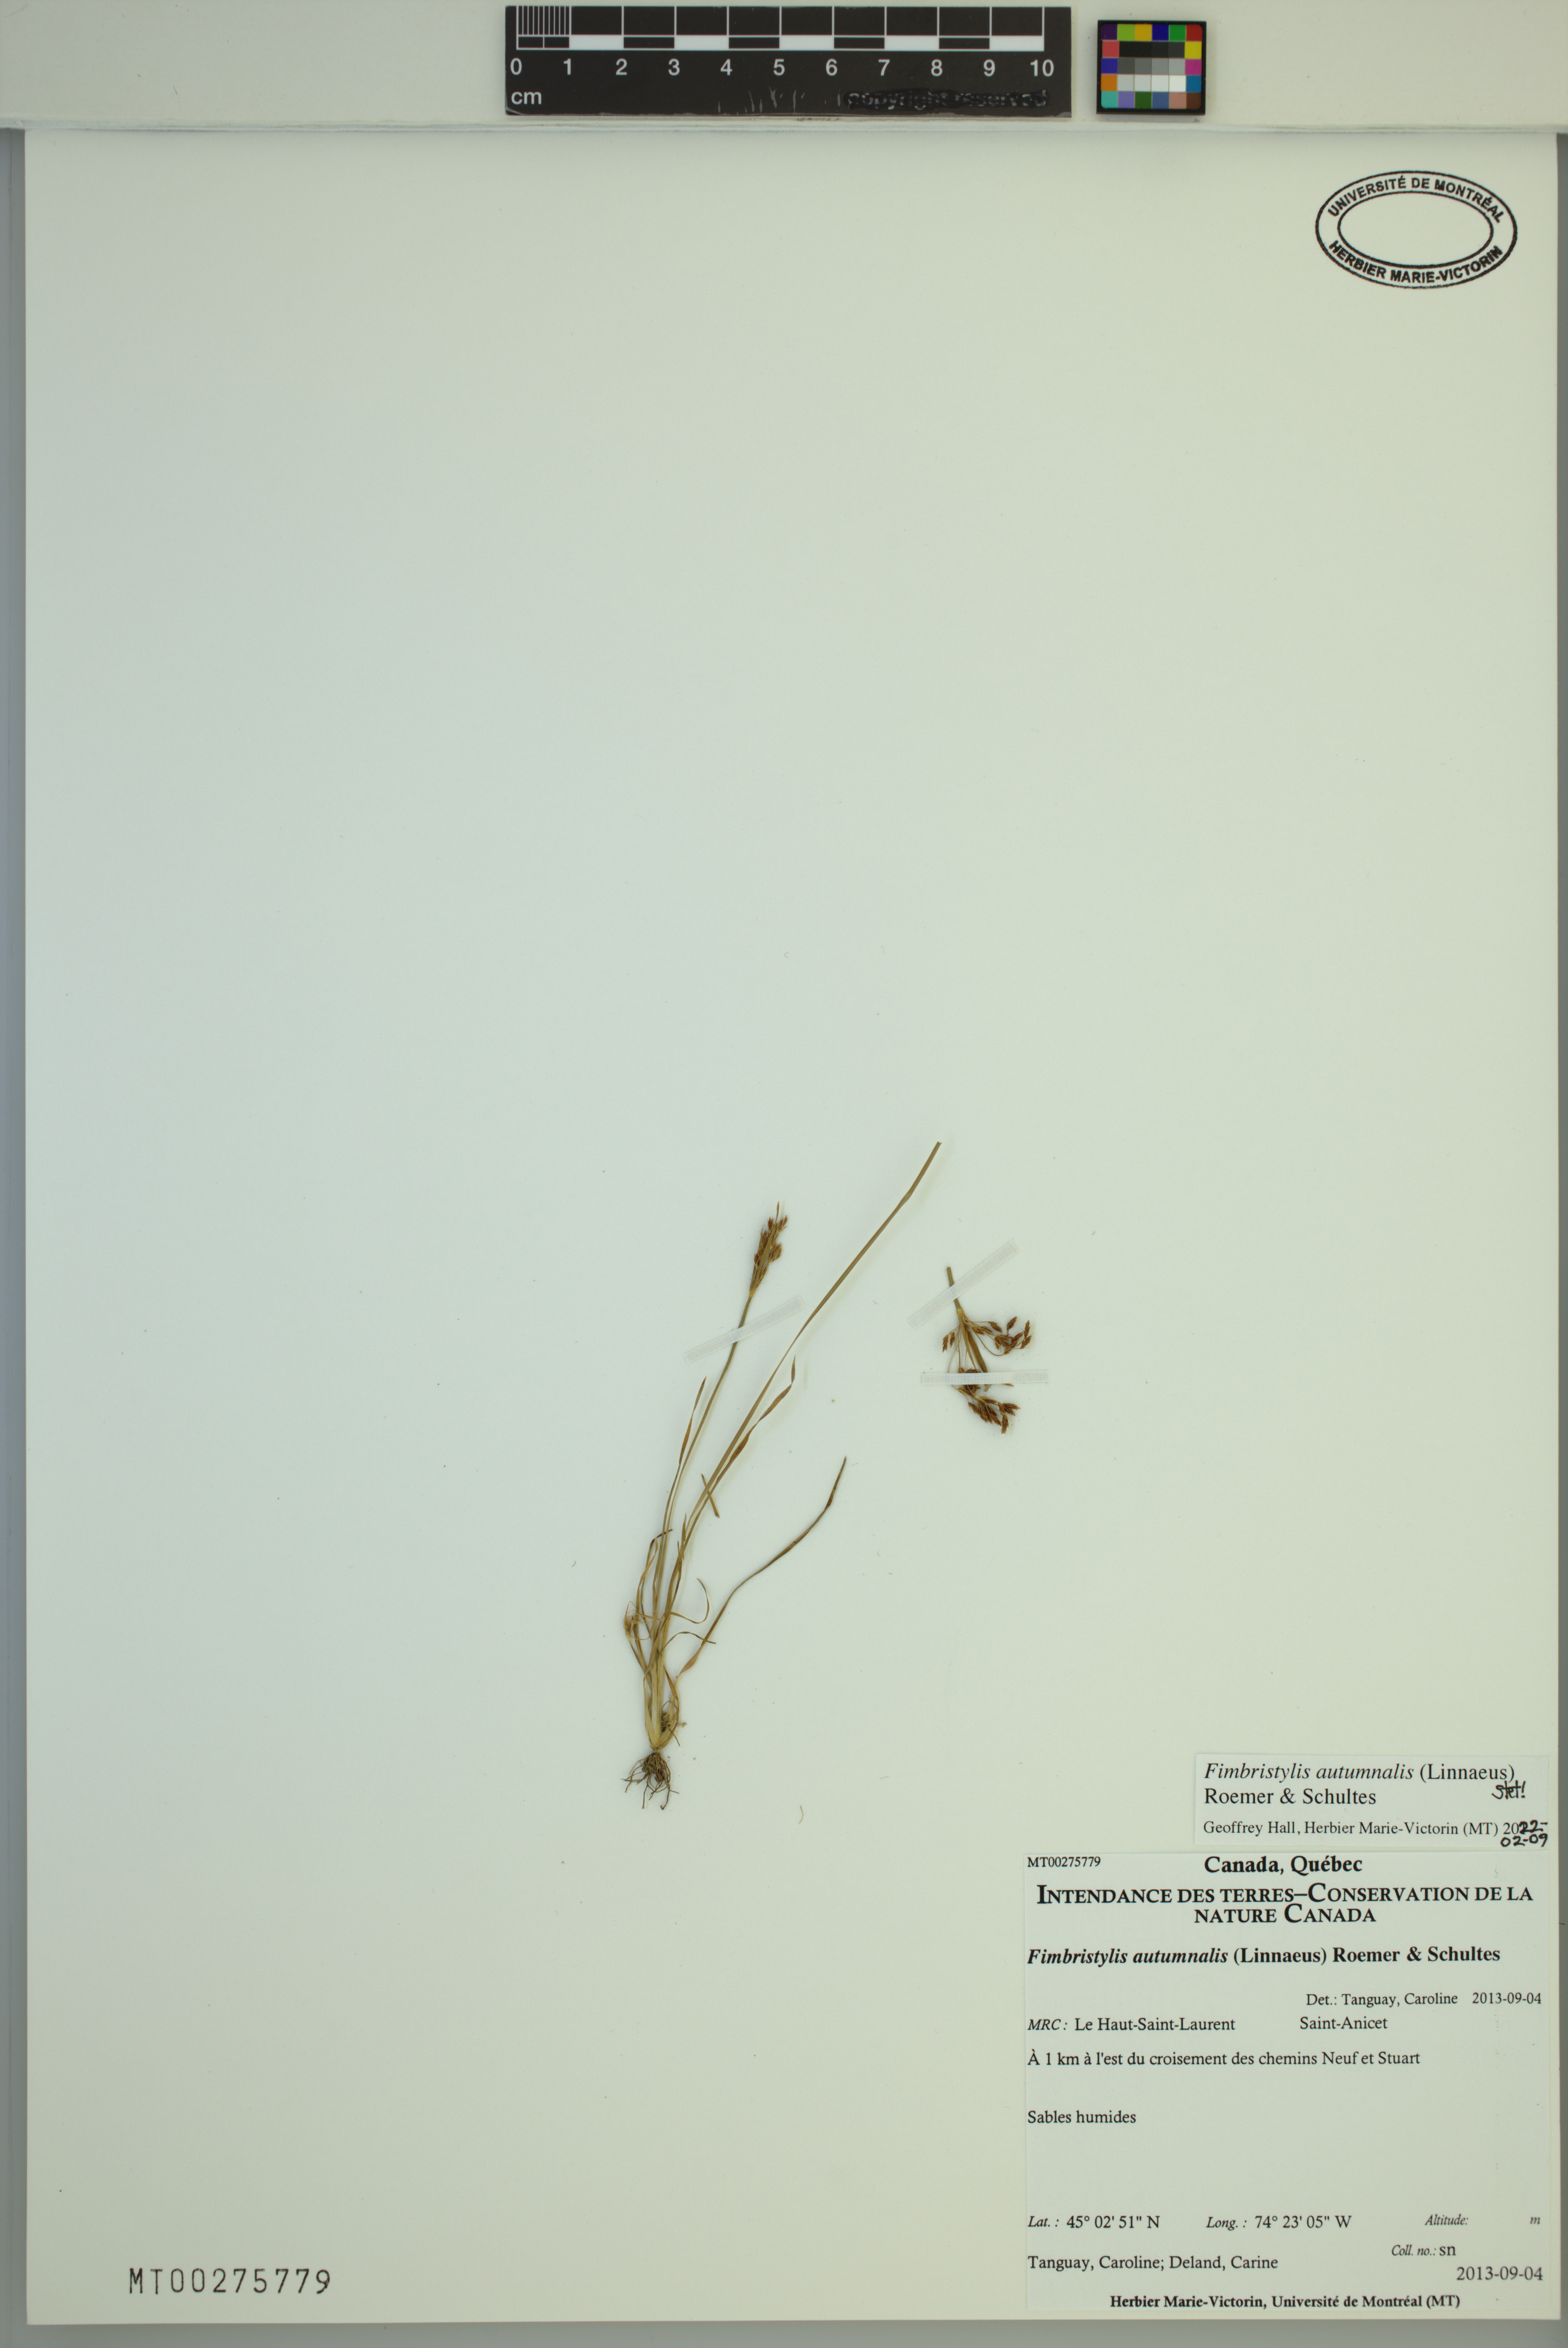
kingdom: Plantae
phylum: Tracheophyta
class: Liliopsida
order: Poales
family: Cyperaceae
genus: Fimbristylis
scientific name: Fimbristylis autumnalis
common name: Slender fimbristylis
